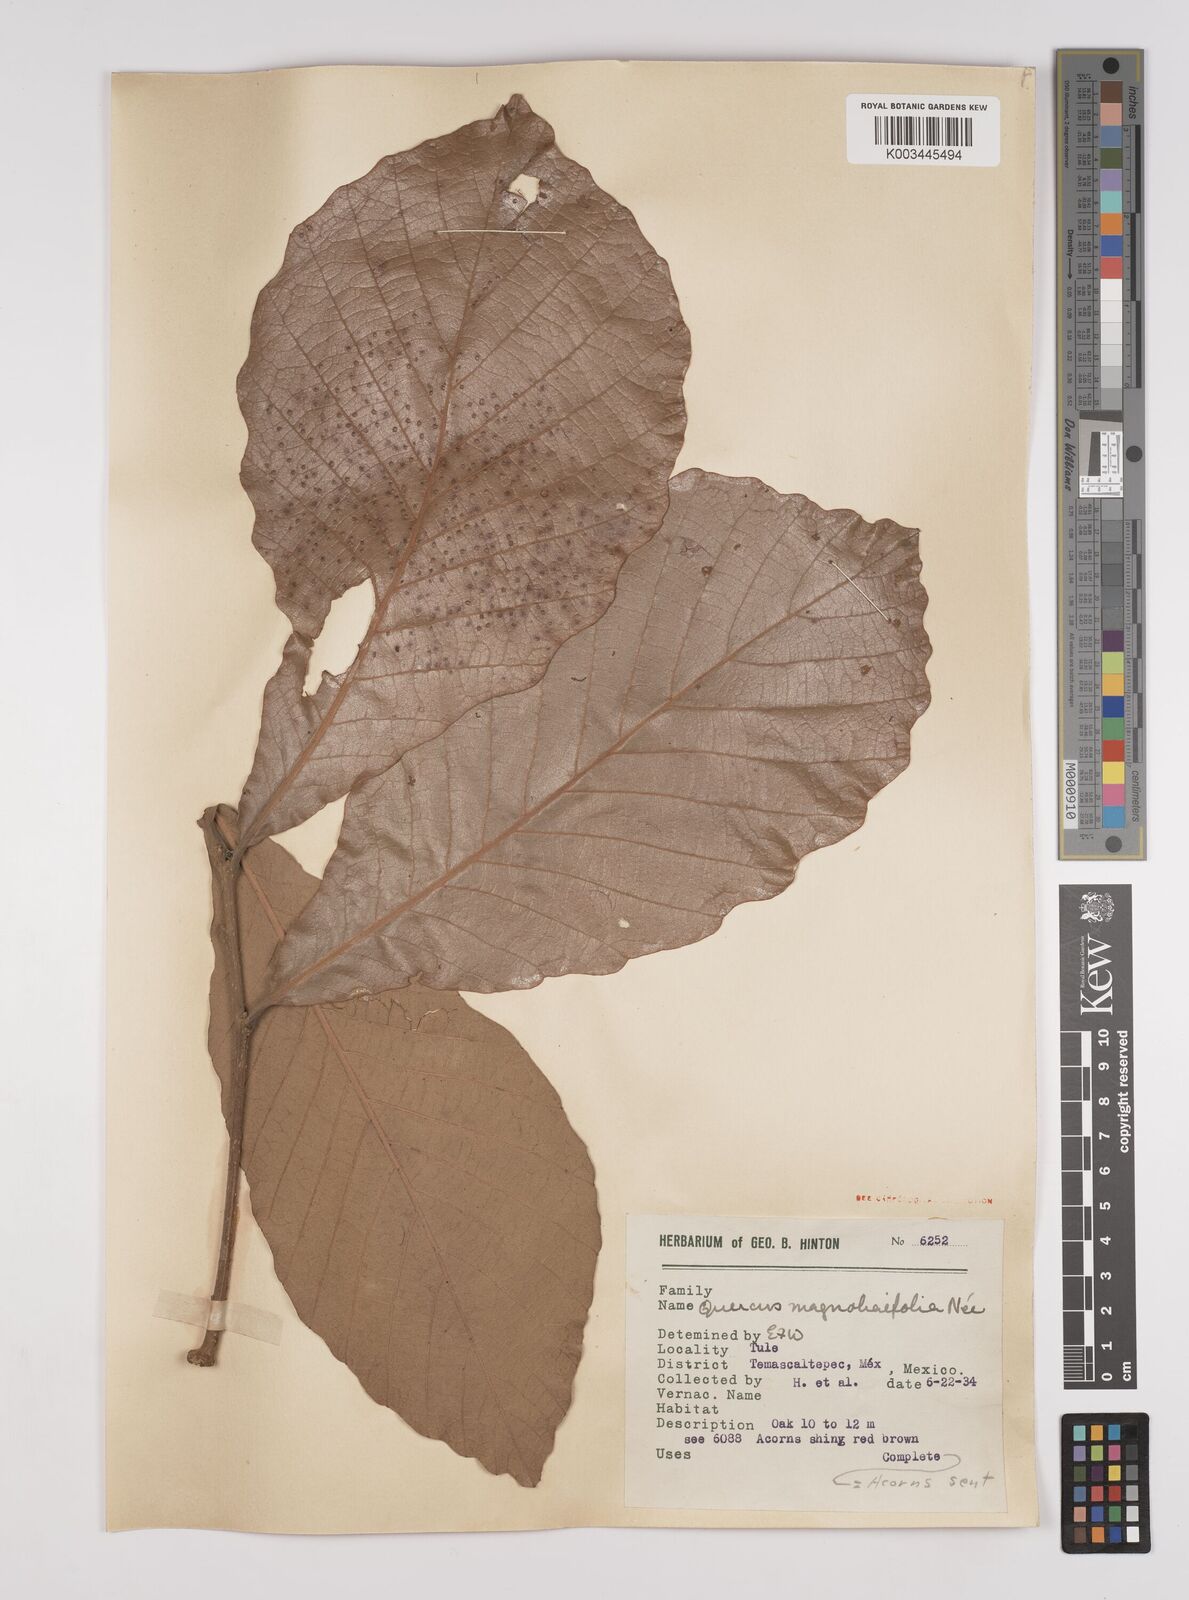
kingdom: Plantae
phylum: Tracheophyta
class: Magnoliopsida
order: Fagales
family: Fagaceae
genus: Quercus
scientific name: Quercus magnoliifolia
